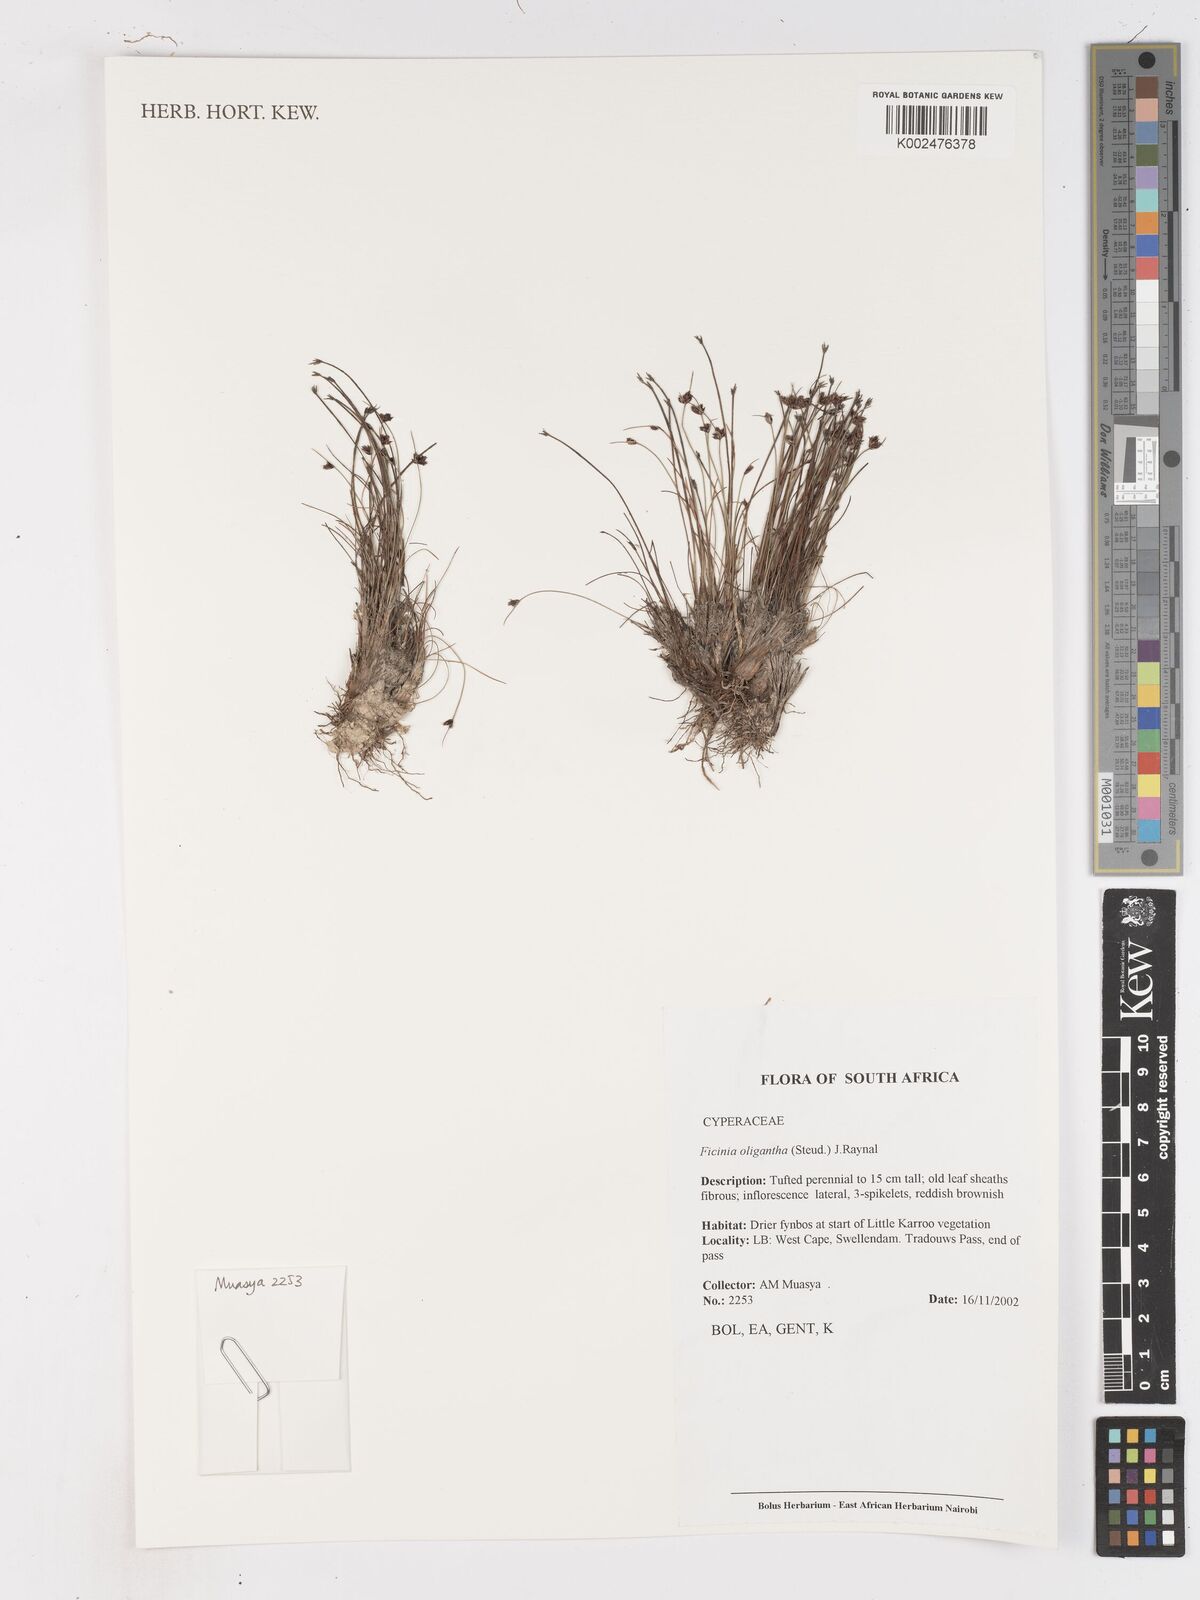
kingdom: Plantae
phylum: Tracheophyta
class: Liliopsida
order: Poales
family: Cyperaceae
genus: Ficinia
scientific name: Ficinia oligantha
